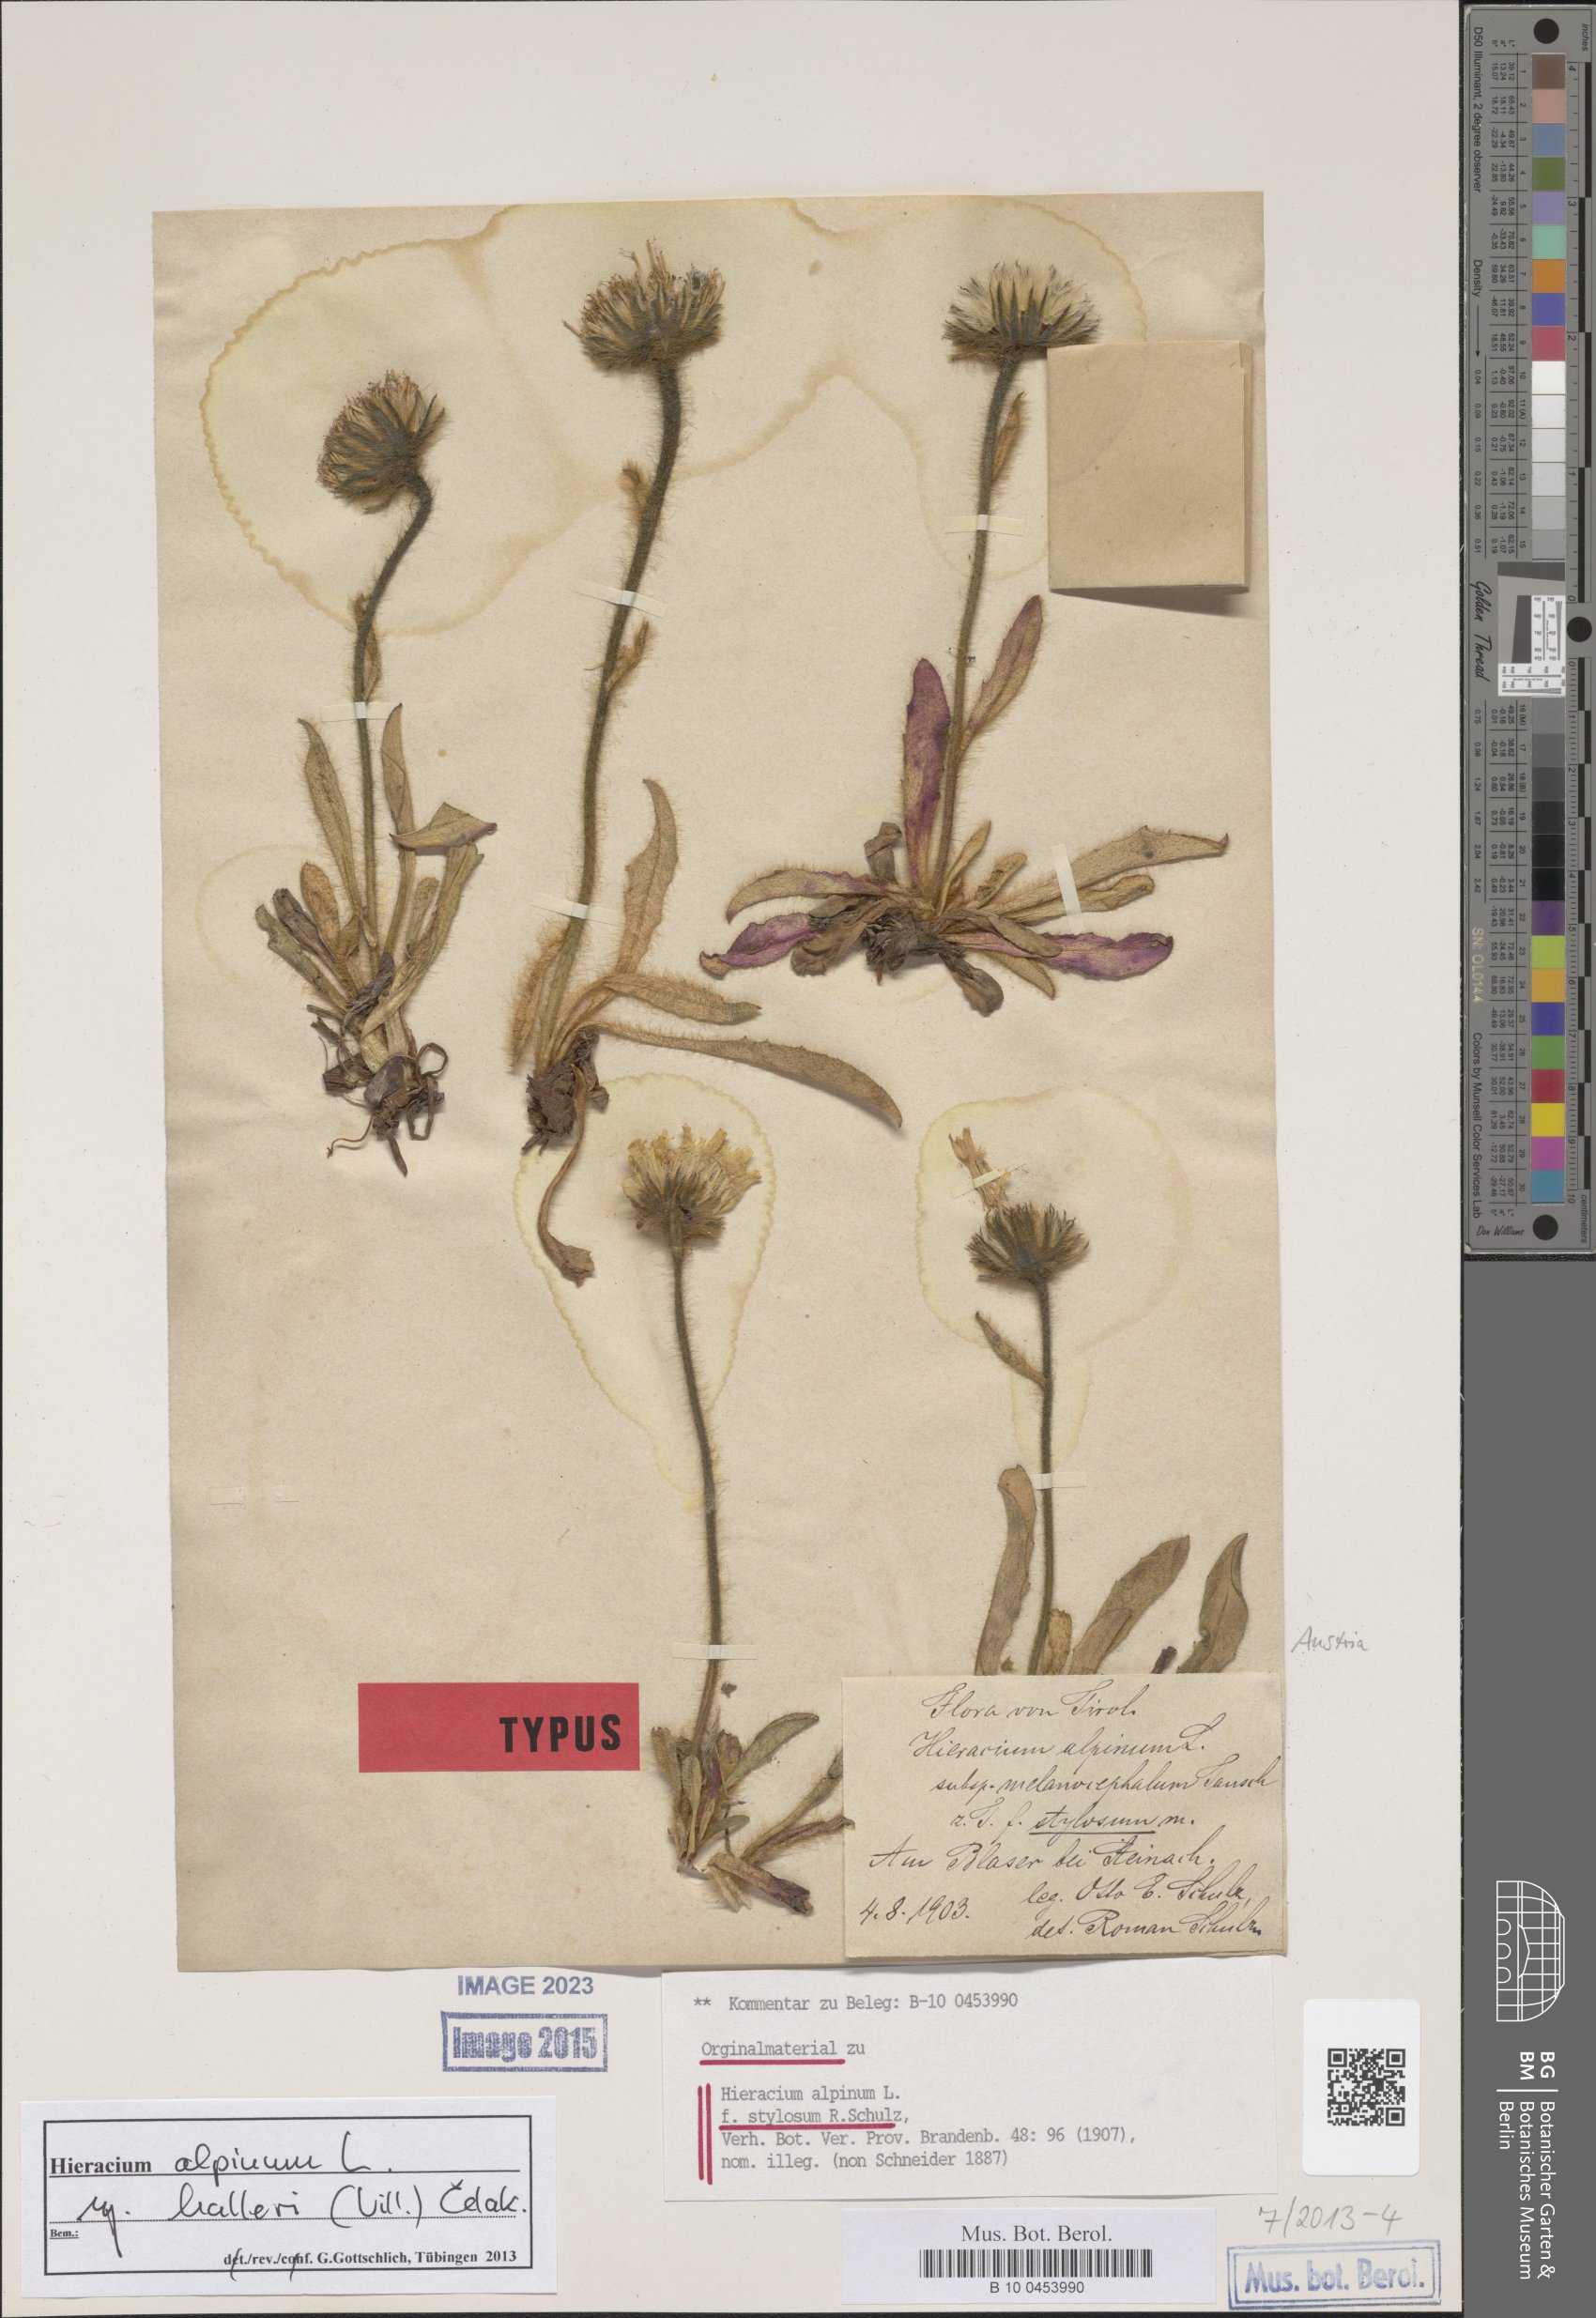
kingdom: Plantae
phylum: Tracheophyta
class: Magnoliopsida
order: Asterales
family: Asteraceae
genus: Hieracium
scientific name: Hieracium alpinum
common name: Alpine hawkweed
